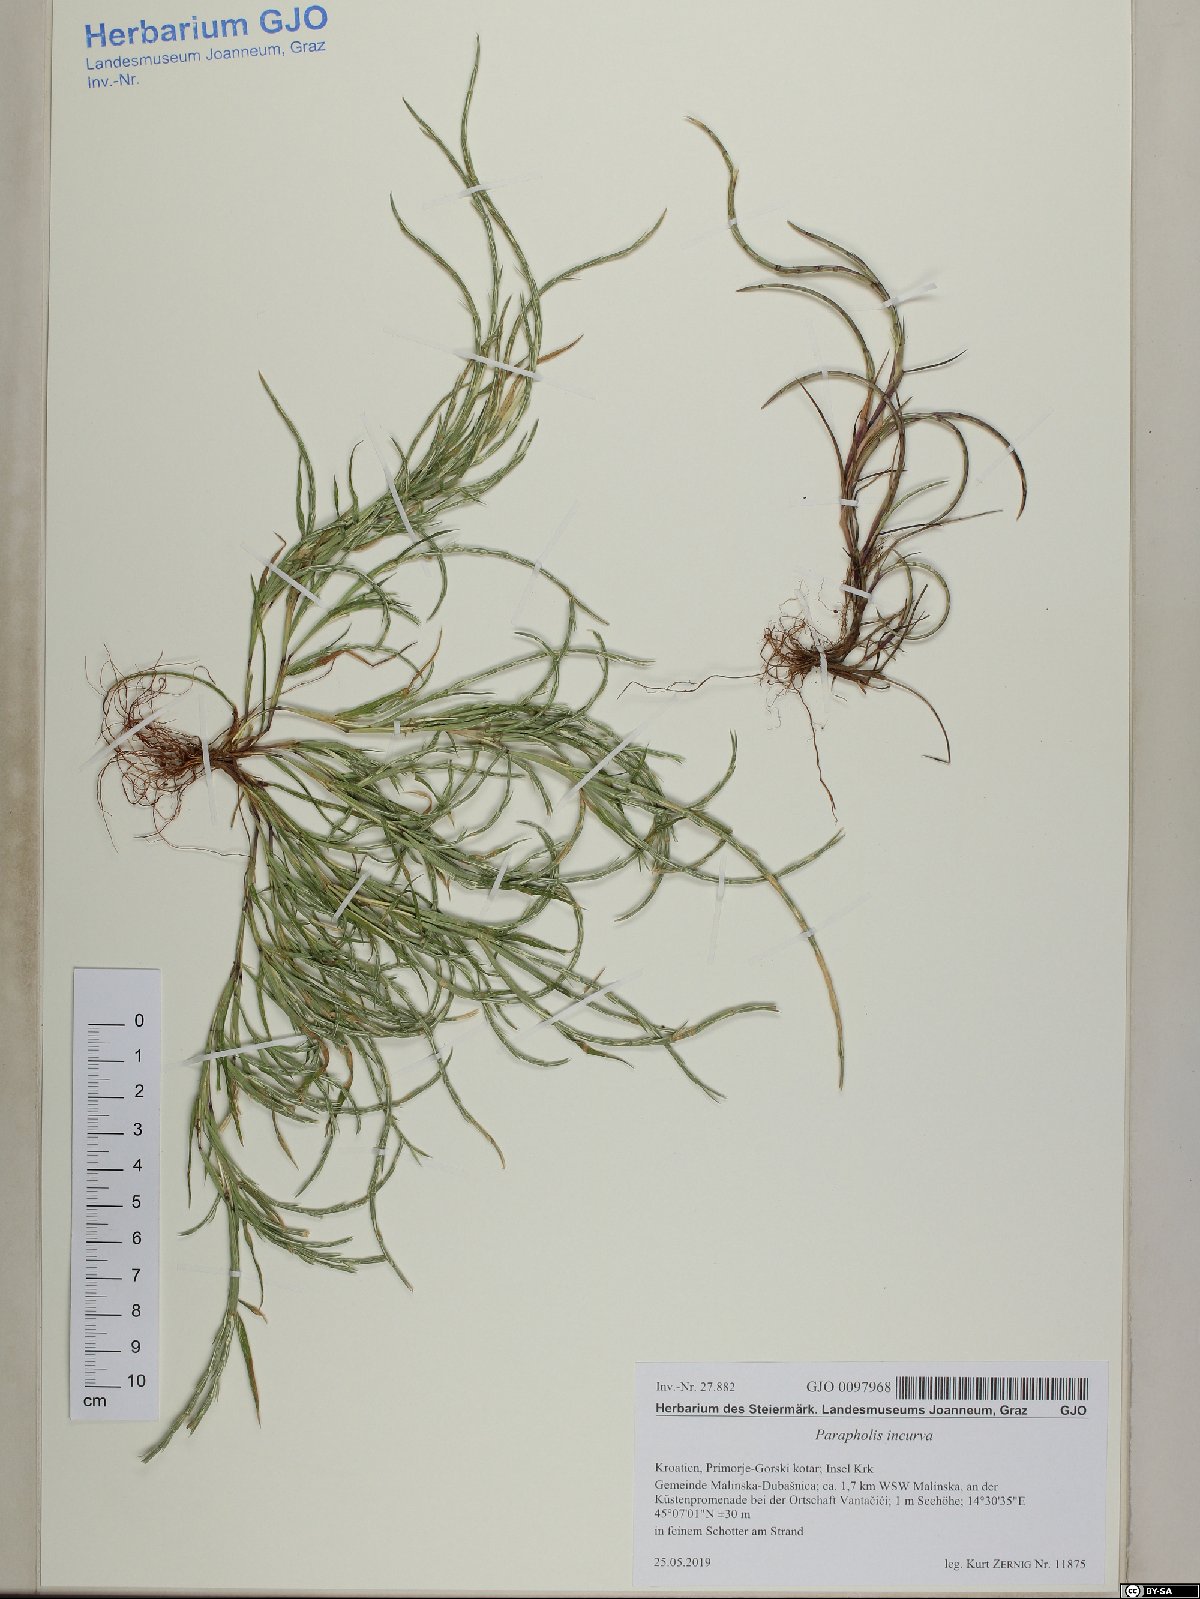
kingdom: Plantae
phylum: Tracheophyta
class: Liliopsida
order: Poales
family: Poaceae
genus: Parapholis
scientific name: Parapholis incurva
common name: Curved sicklegrass
